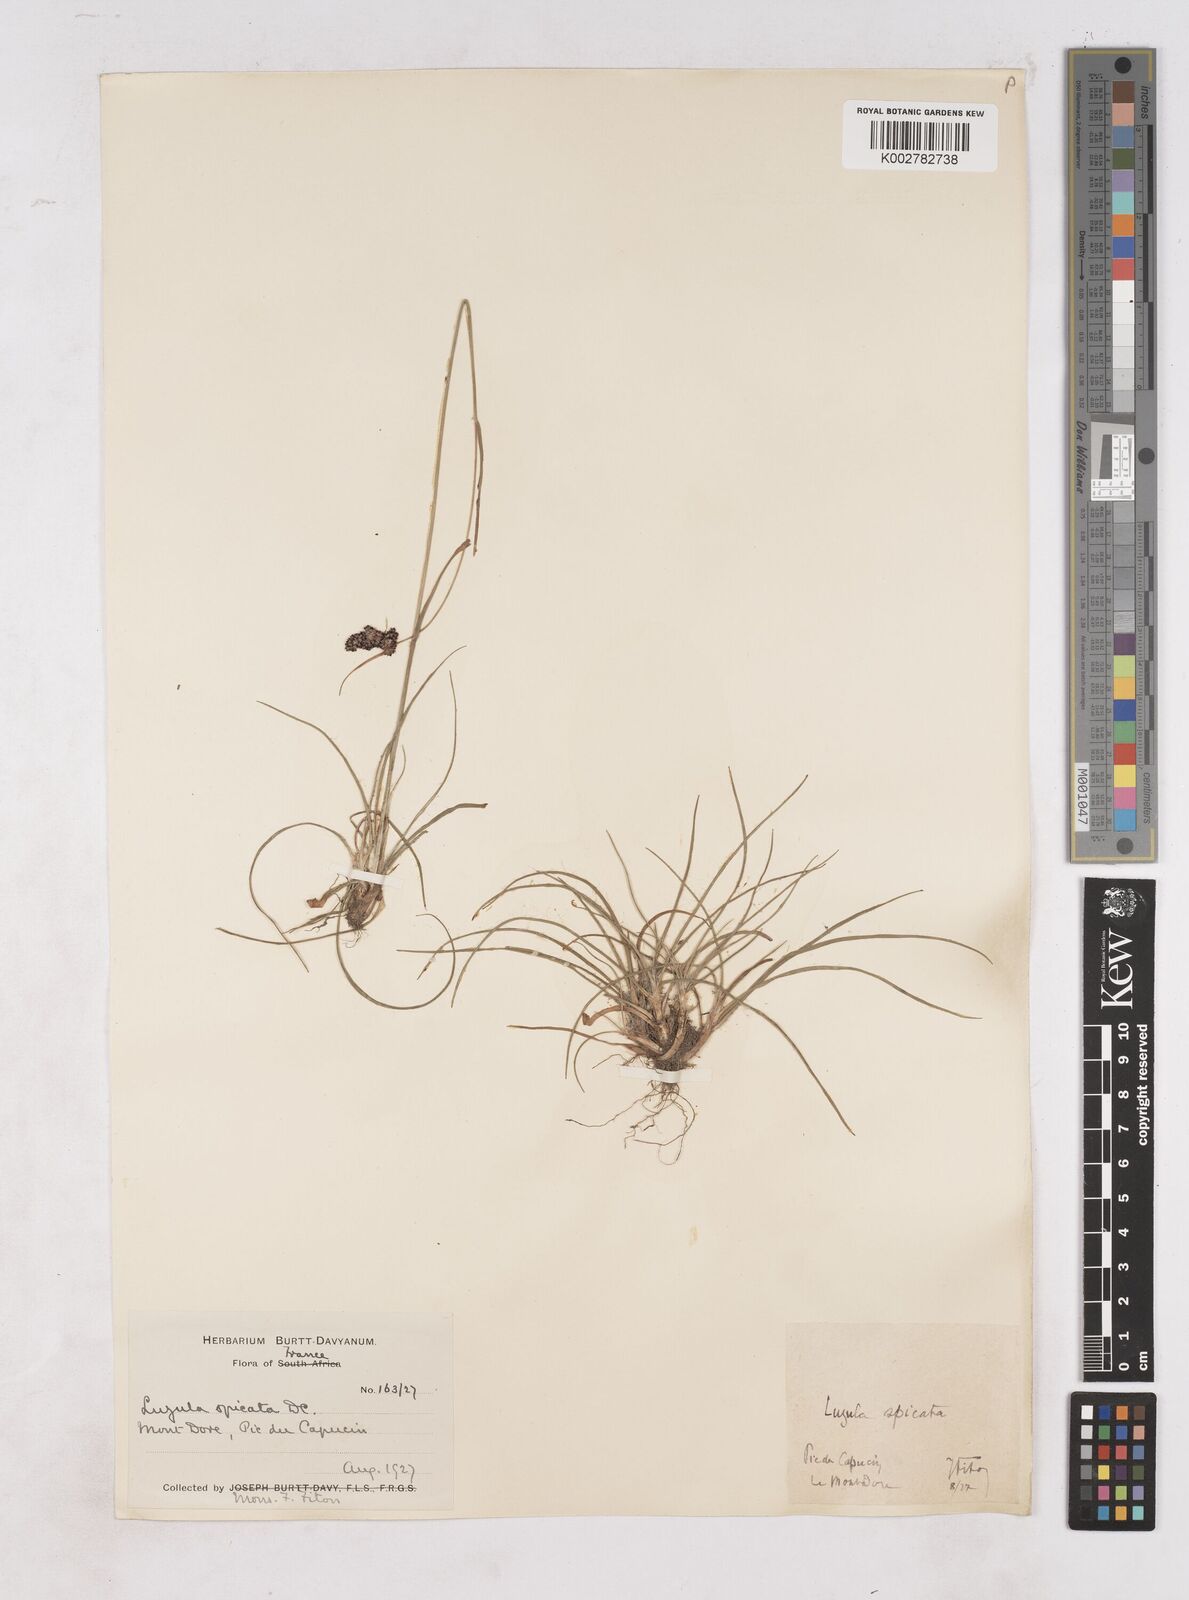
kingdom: Plantae
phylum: Tracheophyta
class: Liliopsida
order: Poales
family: Juncaceae
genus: Luzula
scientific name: Luzula spicata
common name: Spiked wood-rush
